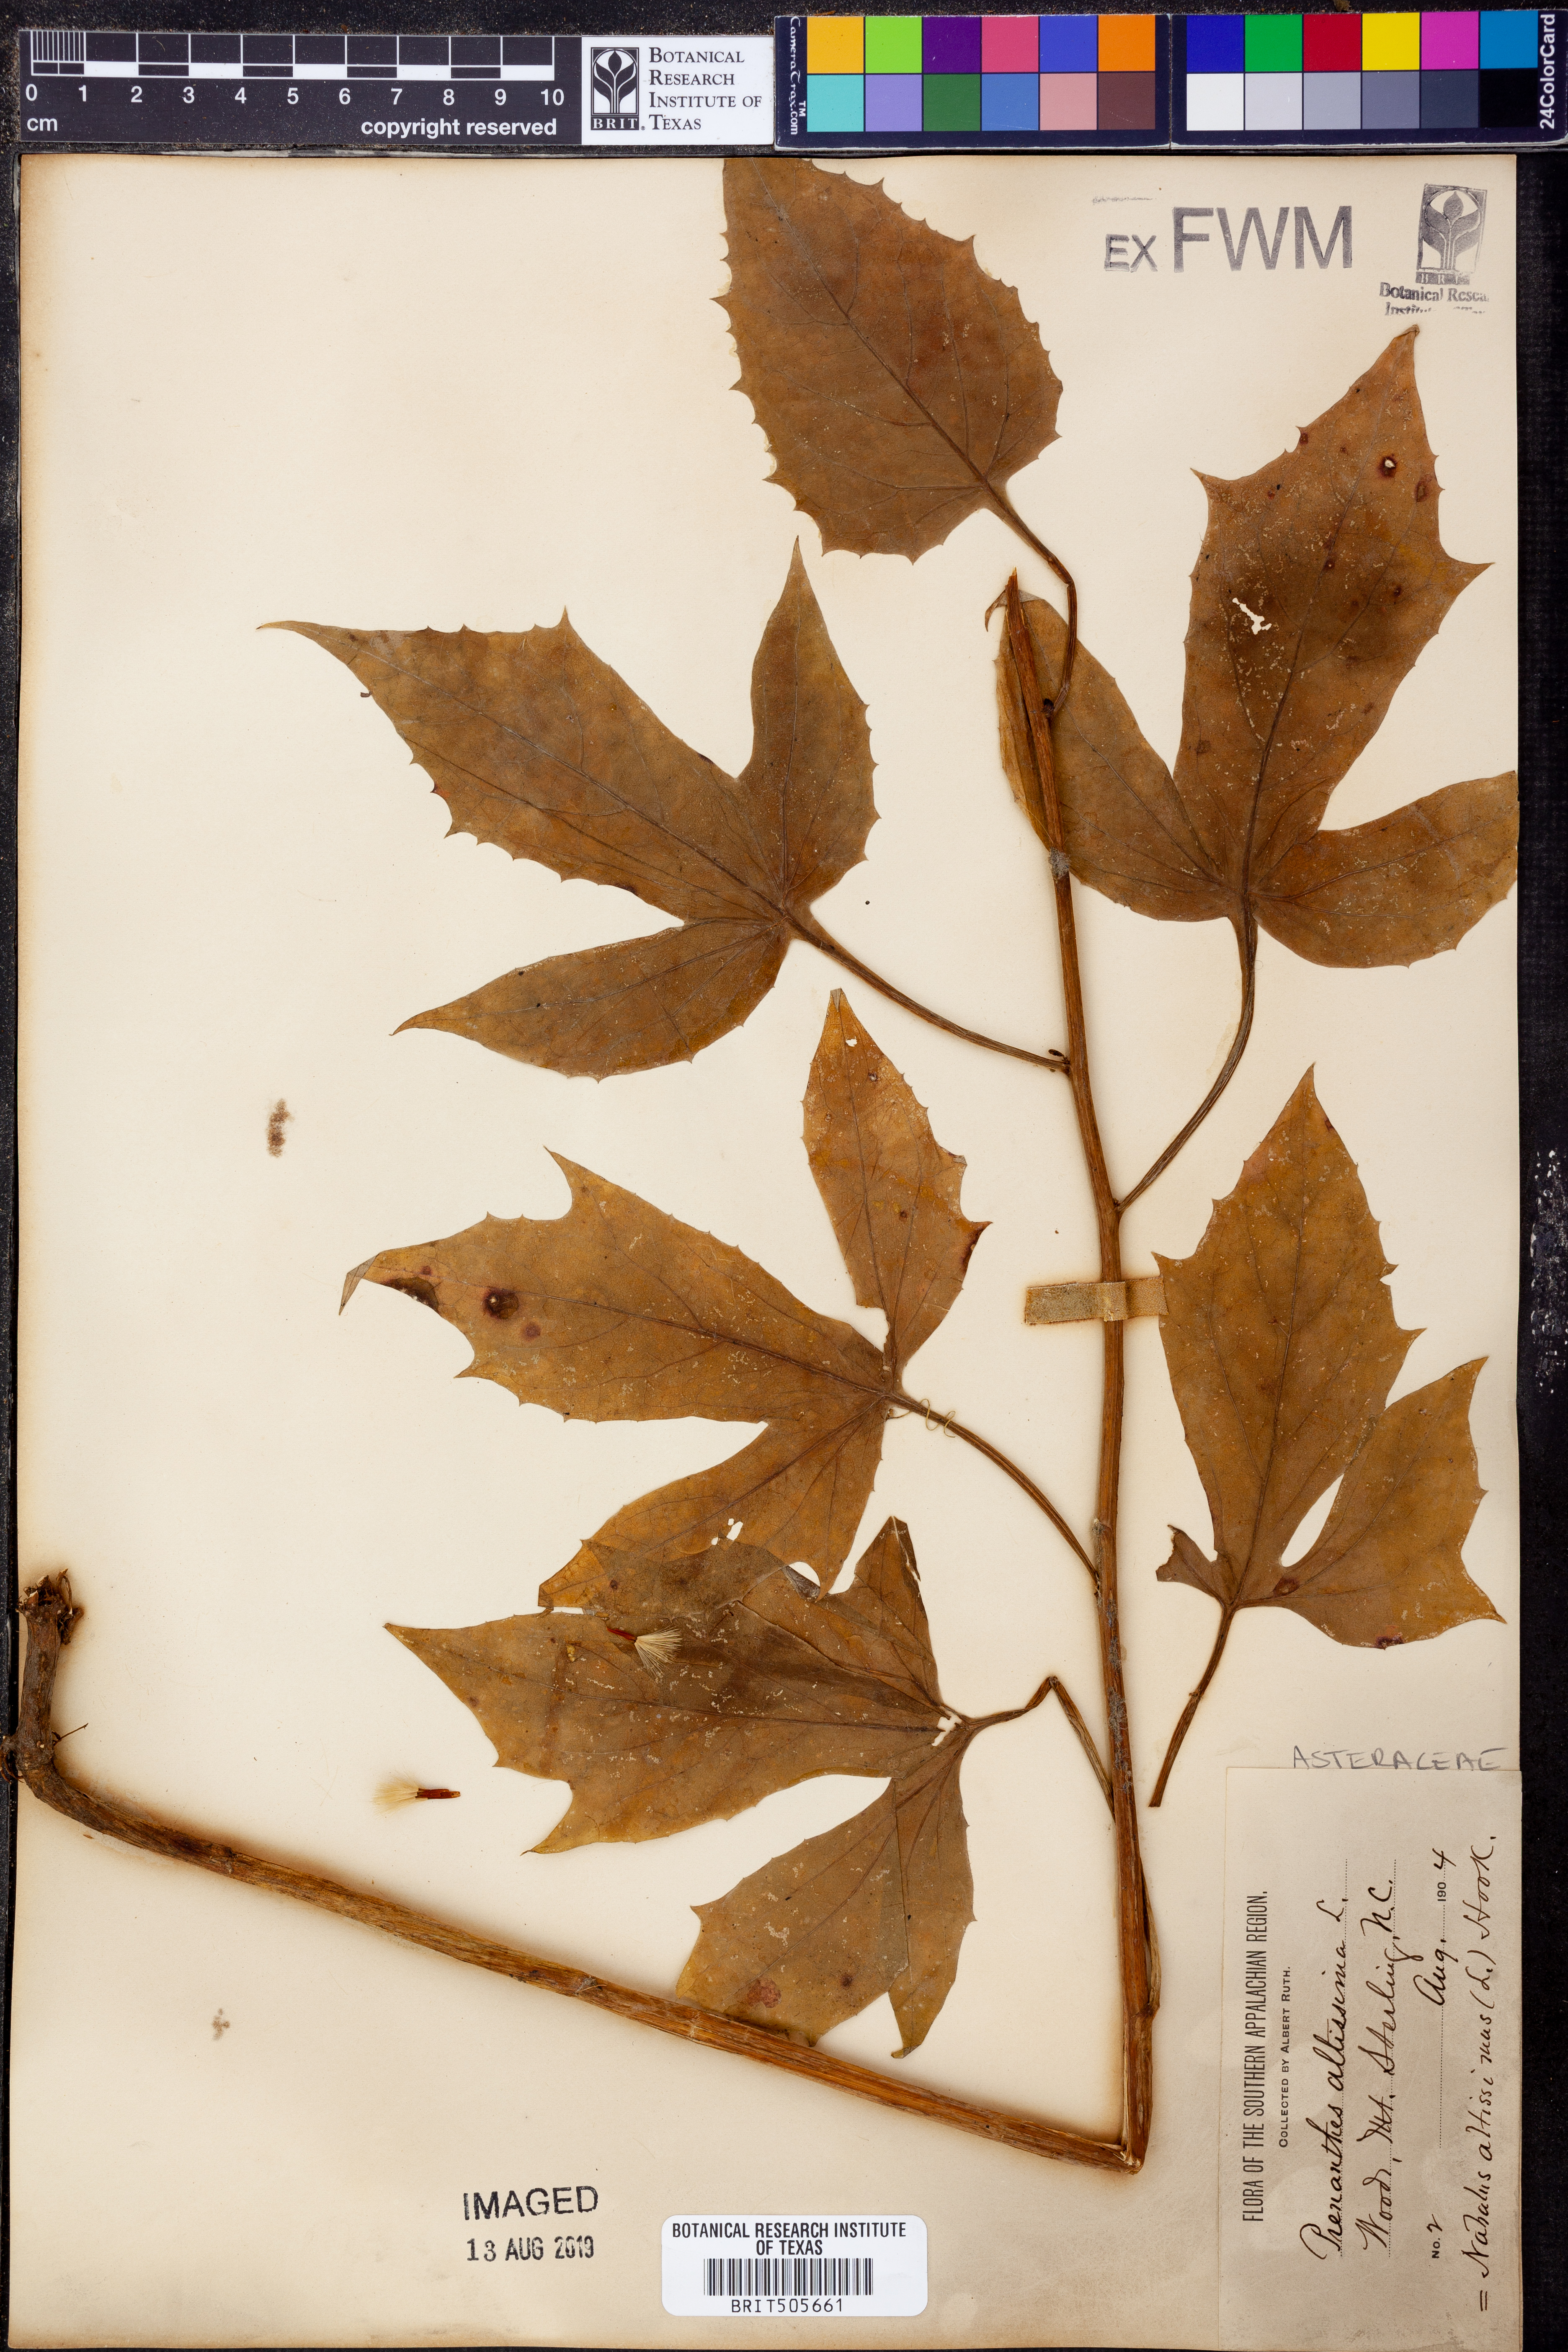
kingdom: Plantae
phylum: Tracheophyta
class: Magnoliopsida
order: Asterales
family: Asteraceae
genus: Lactuca
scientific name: Lactuca quercina
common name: Wild lettuce
